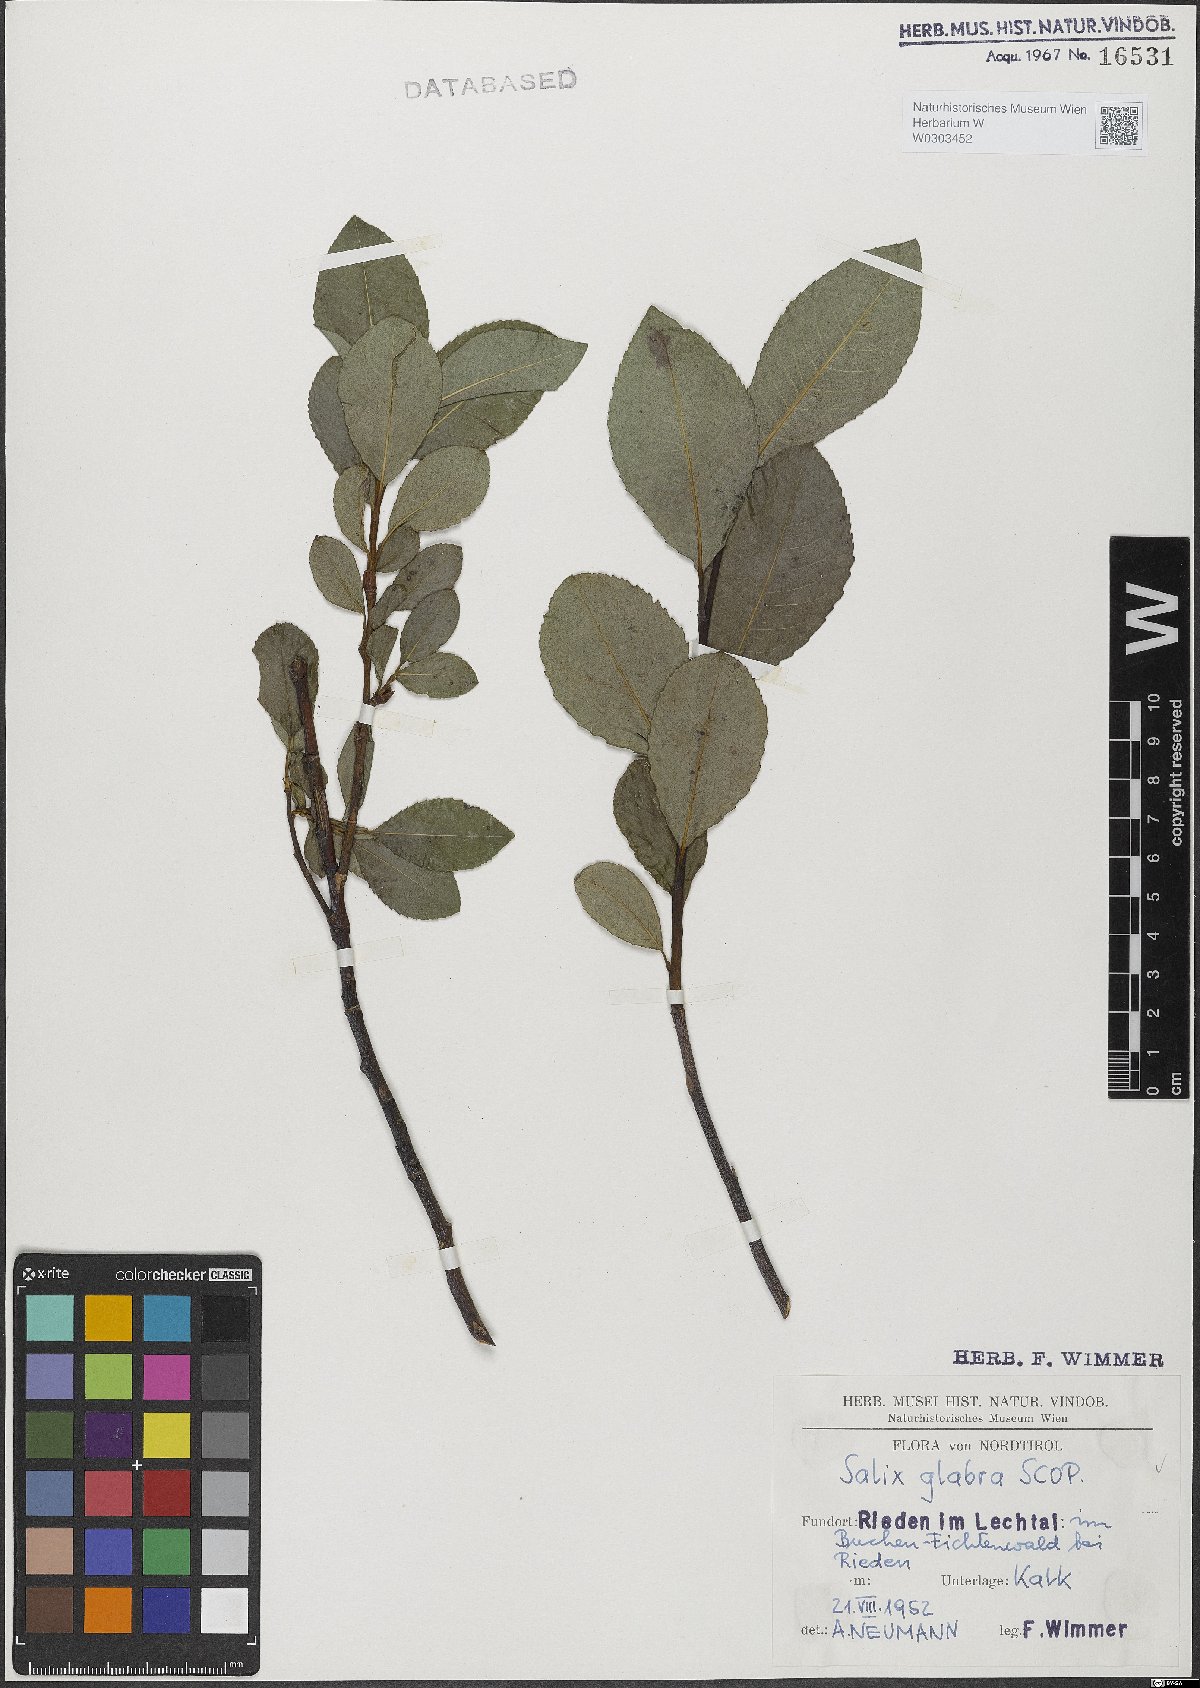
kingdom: Plantae
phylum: Tracheophyta
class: Magnoliopsida
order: Malpighiales
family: Salicaceae
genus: Salix
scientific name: Salix glabra
